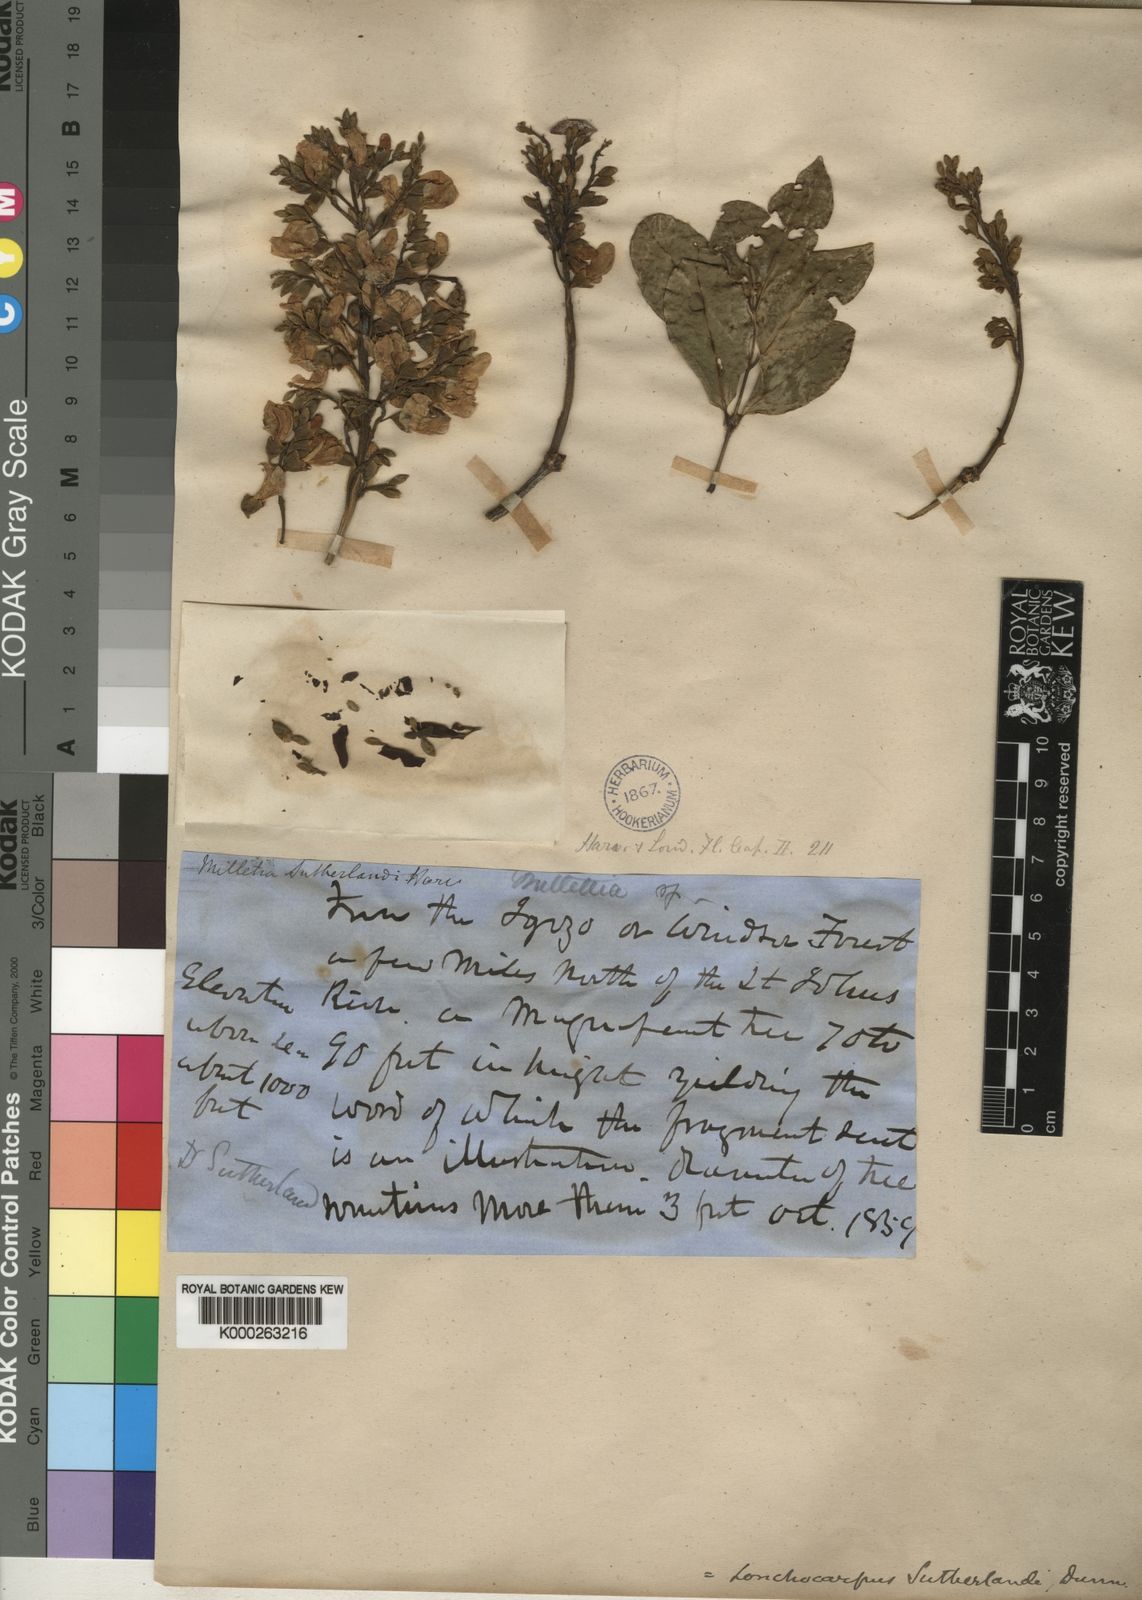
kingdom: Plantae
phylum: Tracheophyta
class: Magnoliopsida
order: Fabales
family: Fabaceae
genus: Philenoptera
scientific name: Philenoptera sutherlandii
